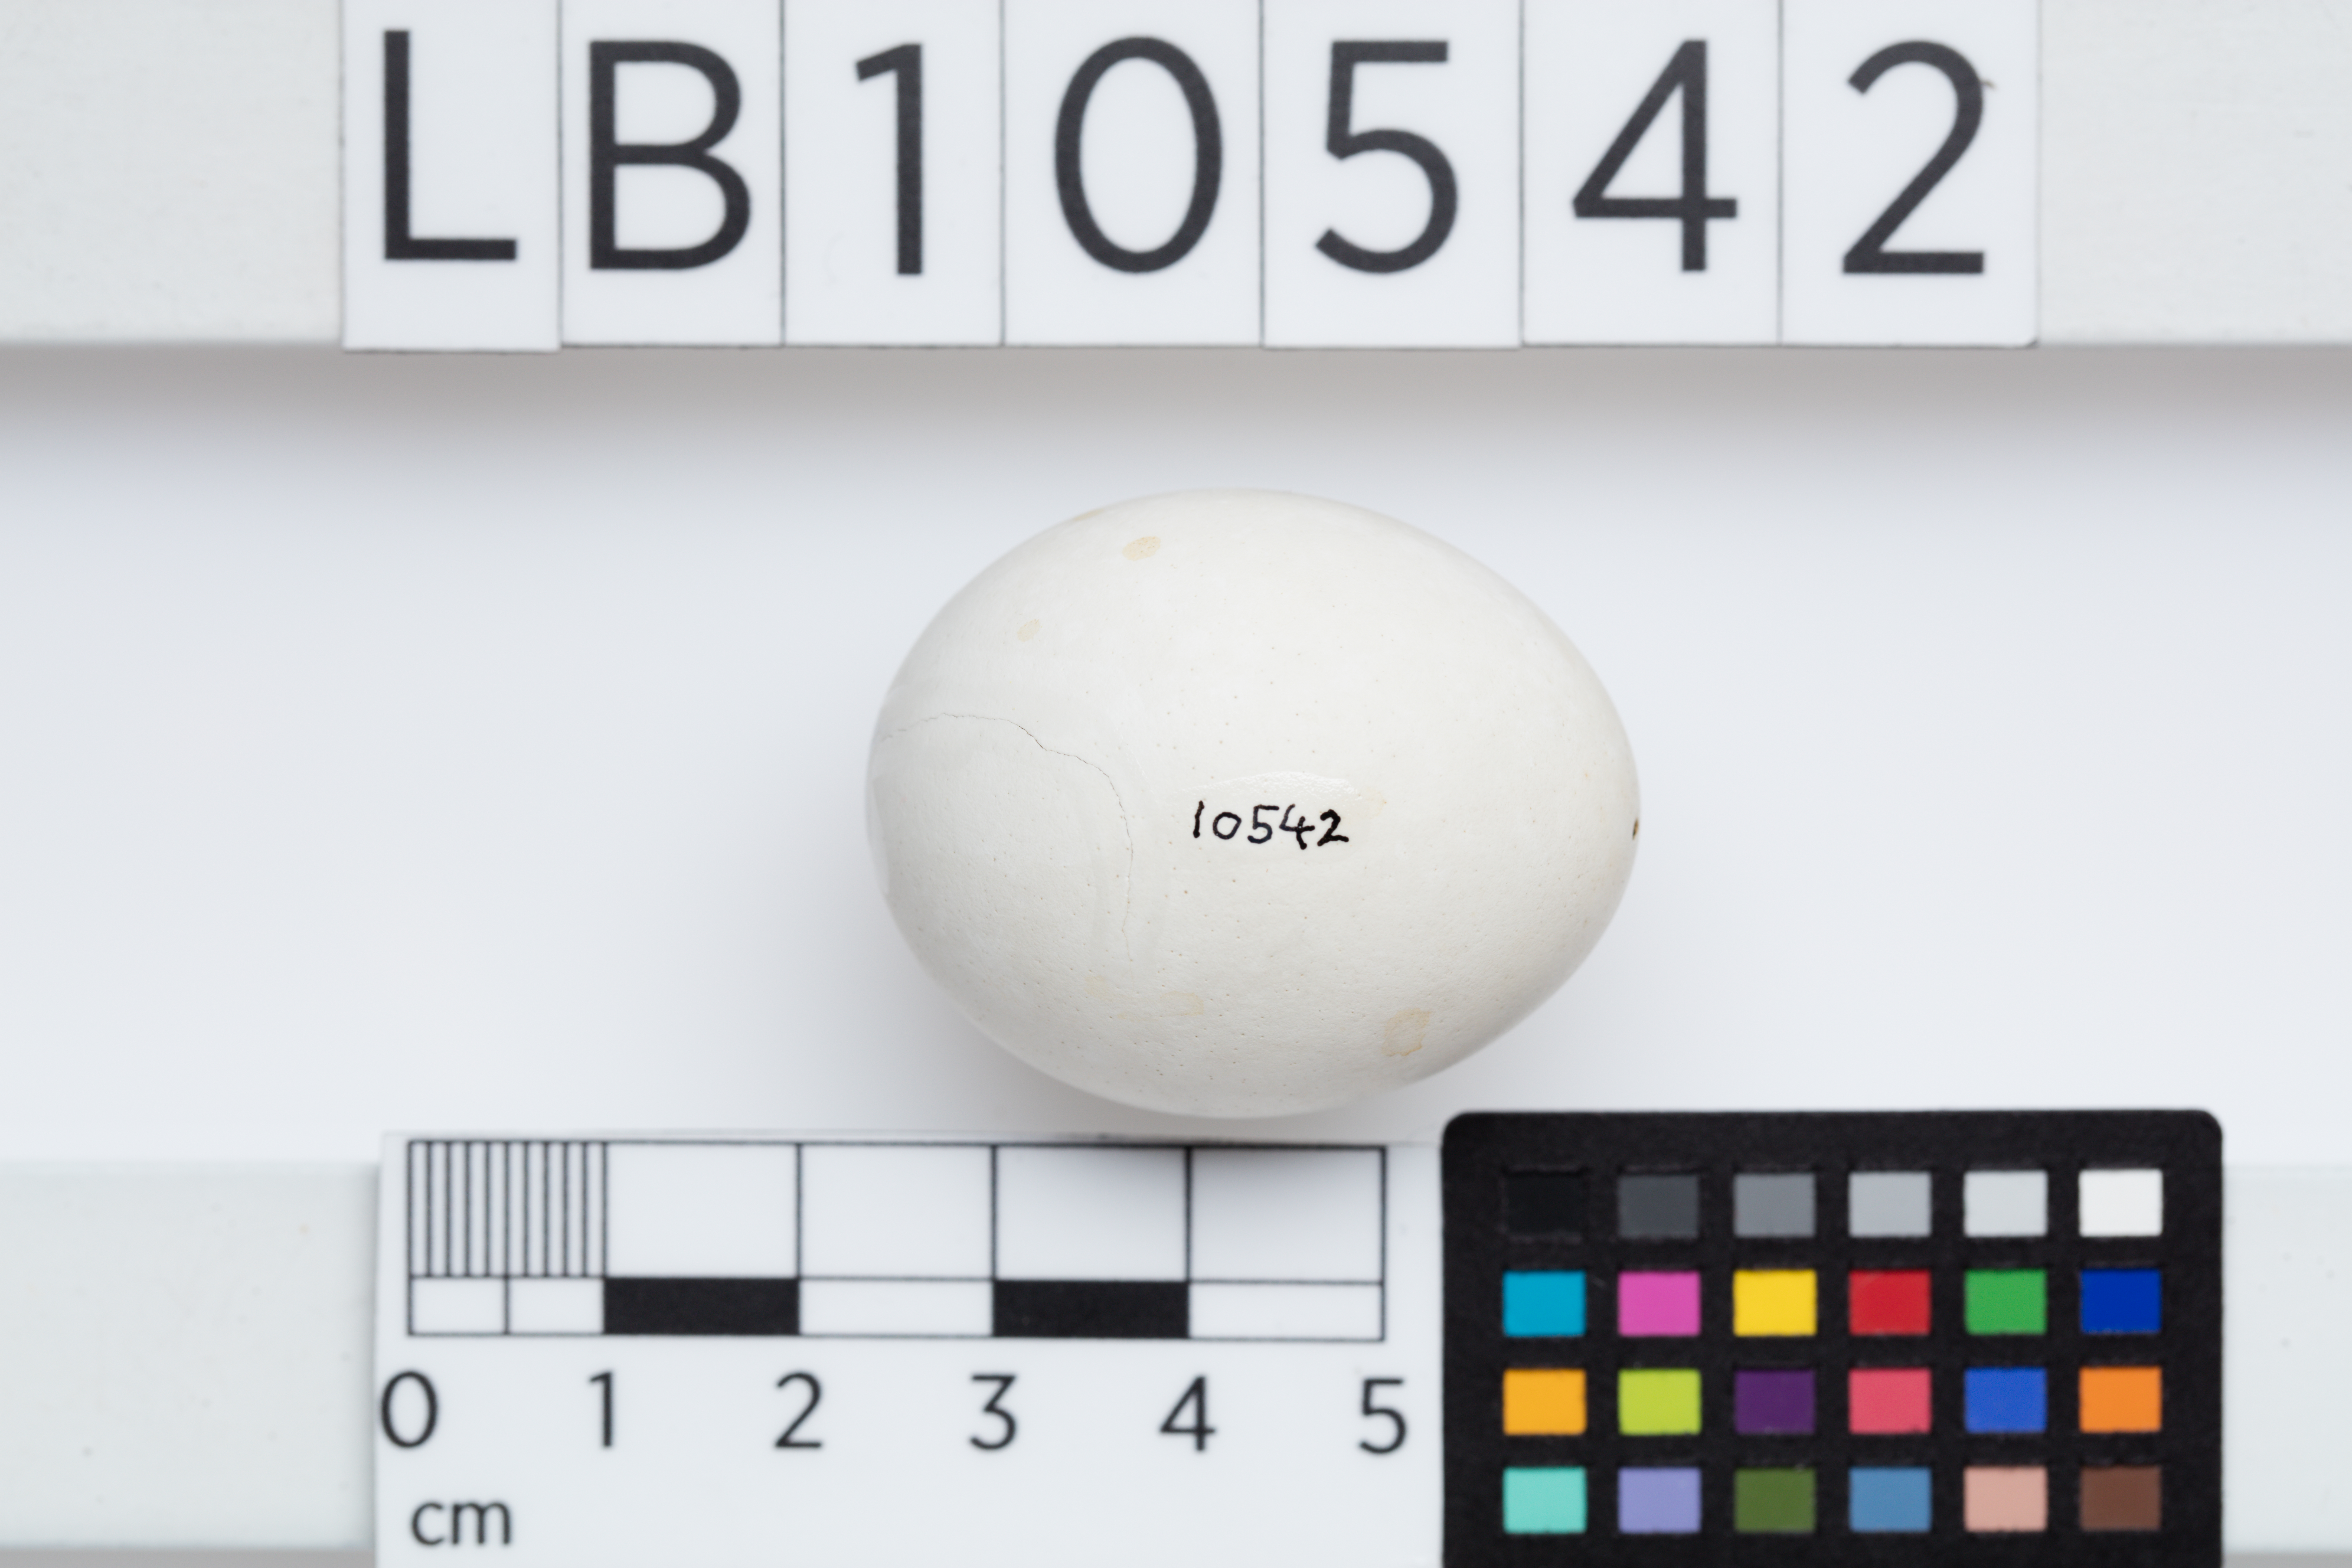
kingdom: Animalia
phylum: Chordata
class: Aves
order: Strigiformes
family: Tytonidae
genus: Tyto
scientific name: Tyto alba
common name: Barn owl
